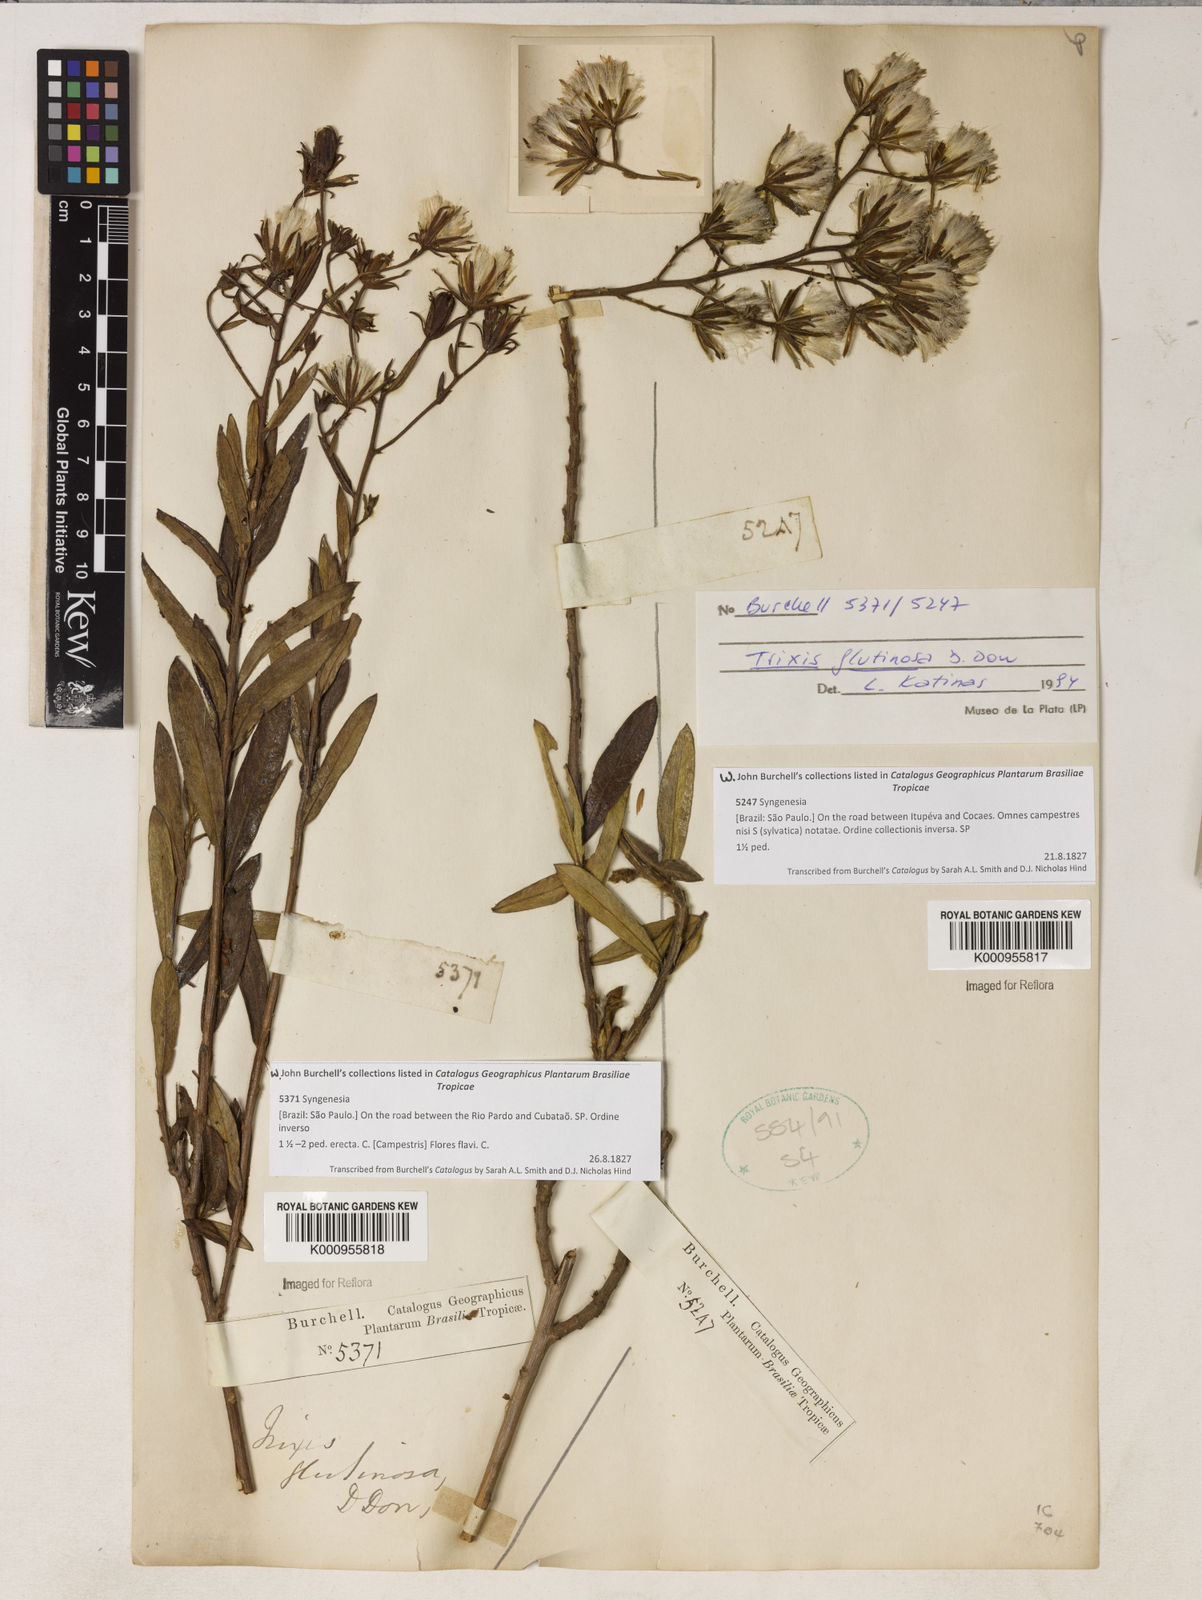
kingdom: Plantae
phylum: Tracheophyta
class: Magnoliopsida
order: Asterales
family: Asteraceae
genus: Trixis
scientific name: Trixis glutinosa
